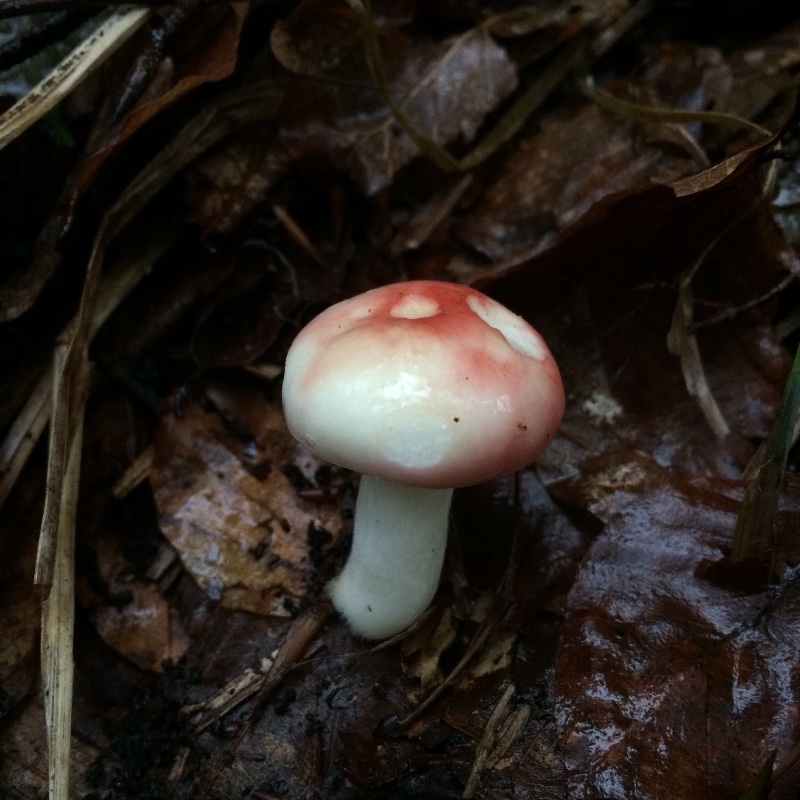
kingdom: Fungi
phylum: Basidiomycota
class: Agaricomycetes
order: Russulales
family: Russulaceae
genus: Russula
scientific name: Russula nobilis
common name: lille gift-skørhat
